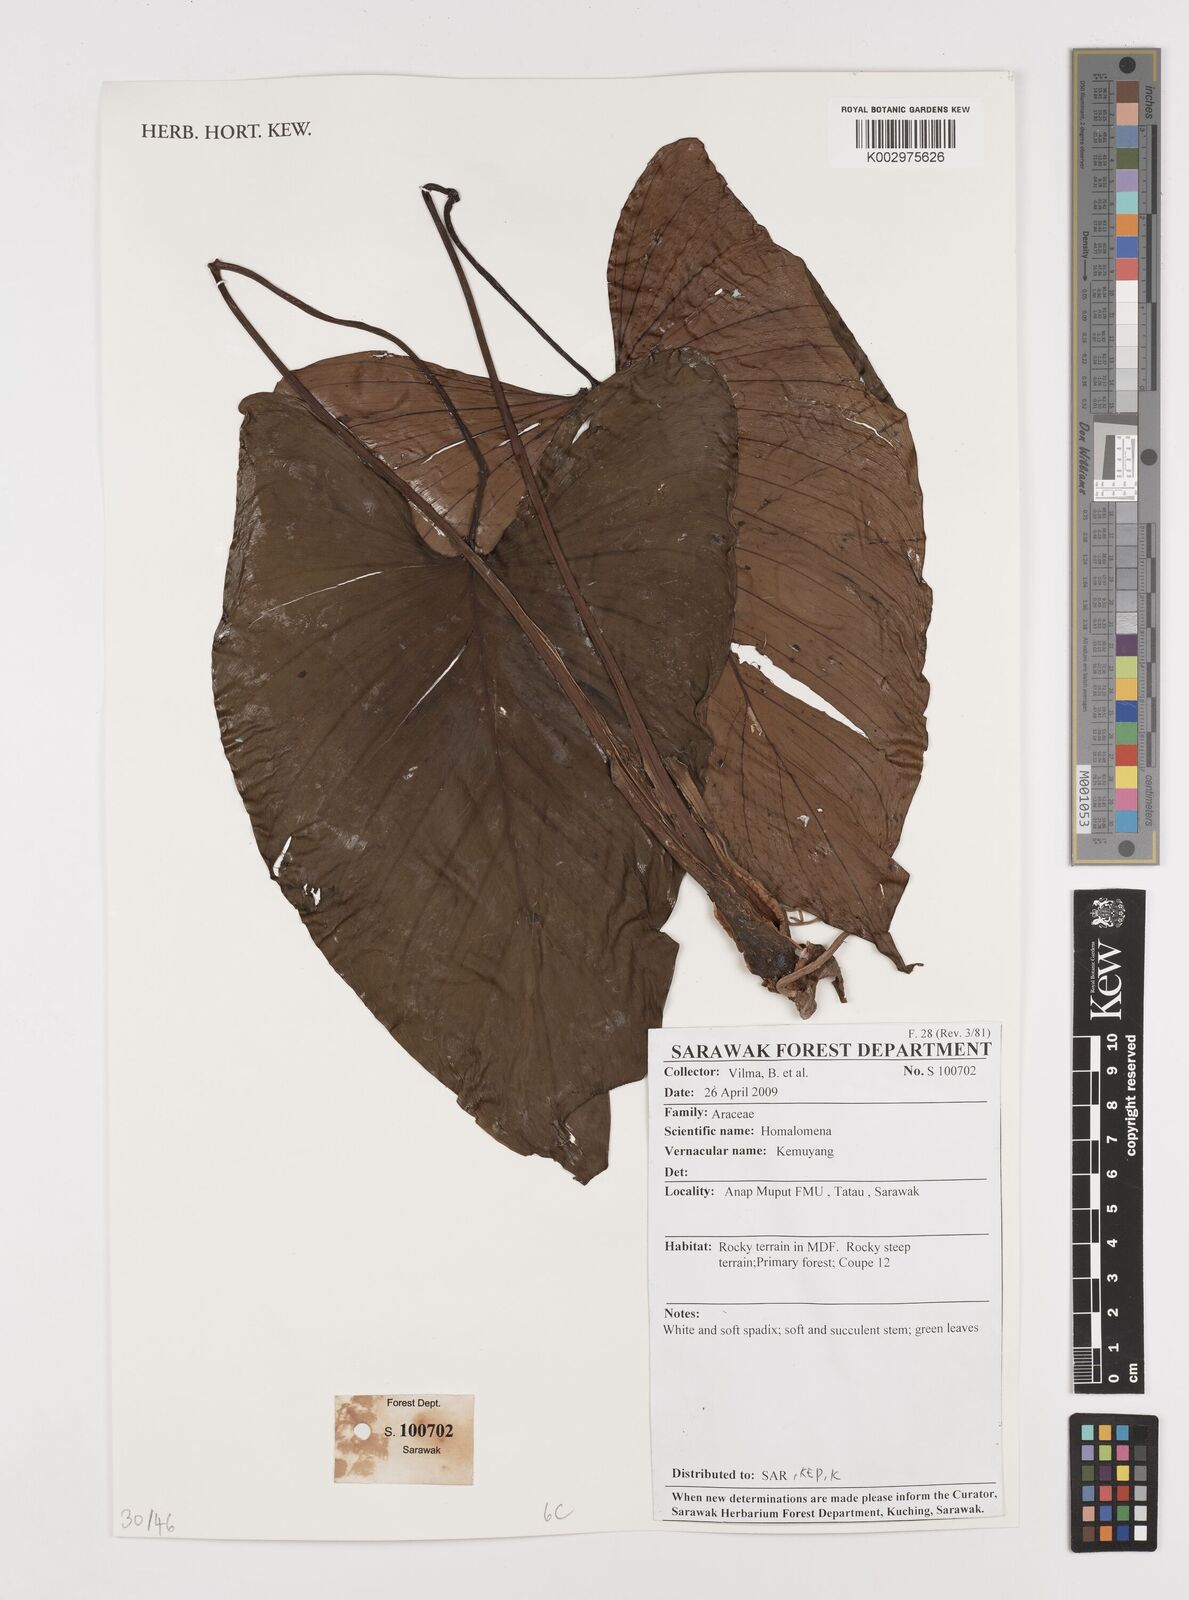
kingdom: Plantae
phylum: Tracheophyta
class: Liliopsida
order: Alismatales
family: Araceae
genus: Homalomena
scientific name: Homalomena
